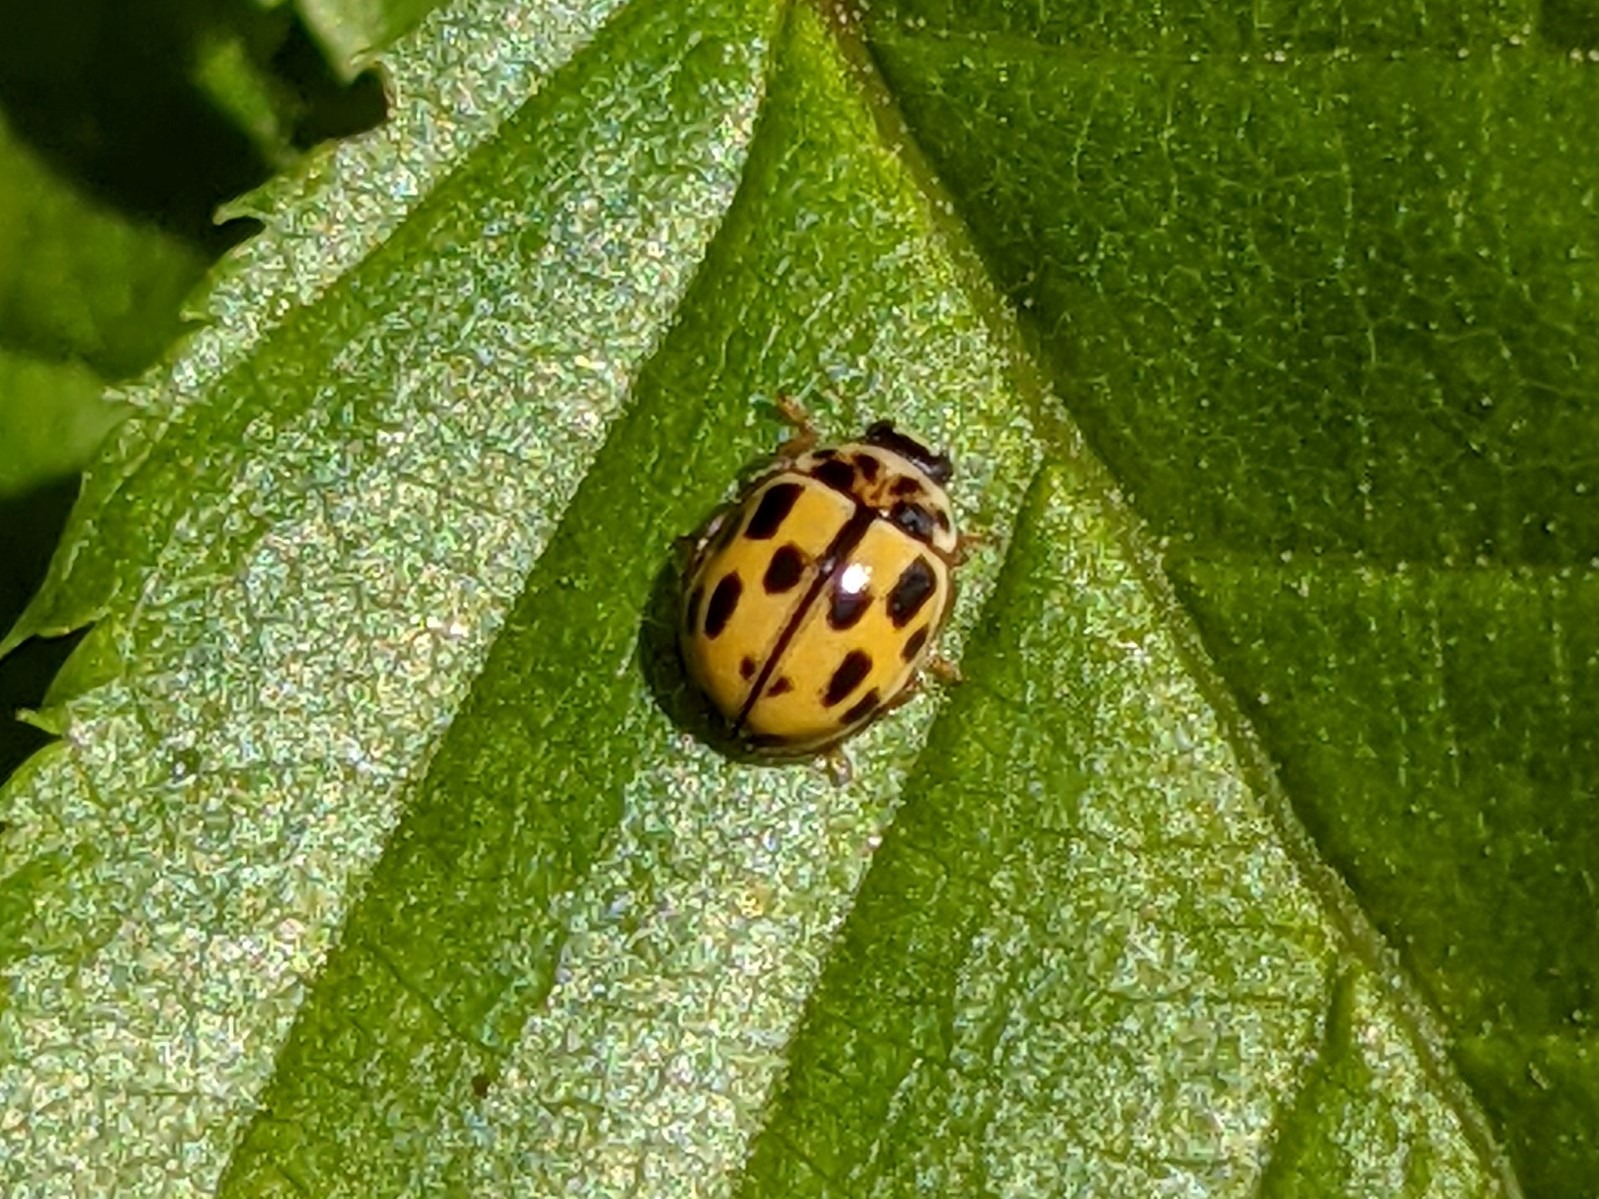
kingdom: Animalia
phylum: Arthropoda
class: Insecta
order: Coleoptera
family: Coccinellidae
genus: Propylaea
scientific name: Propylaea quatuordecimpunctata
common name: Skakbræt
